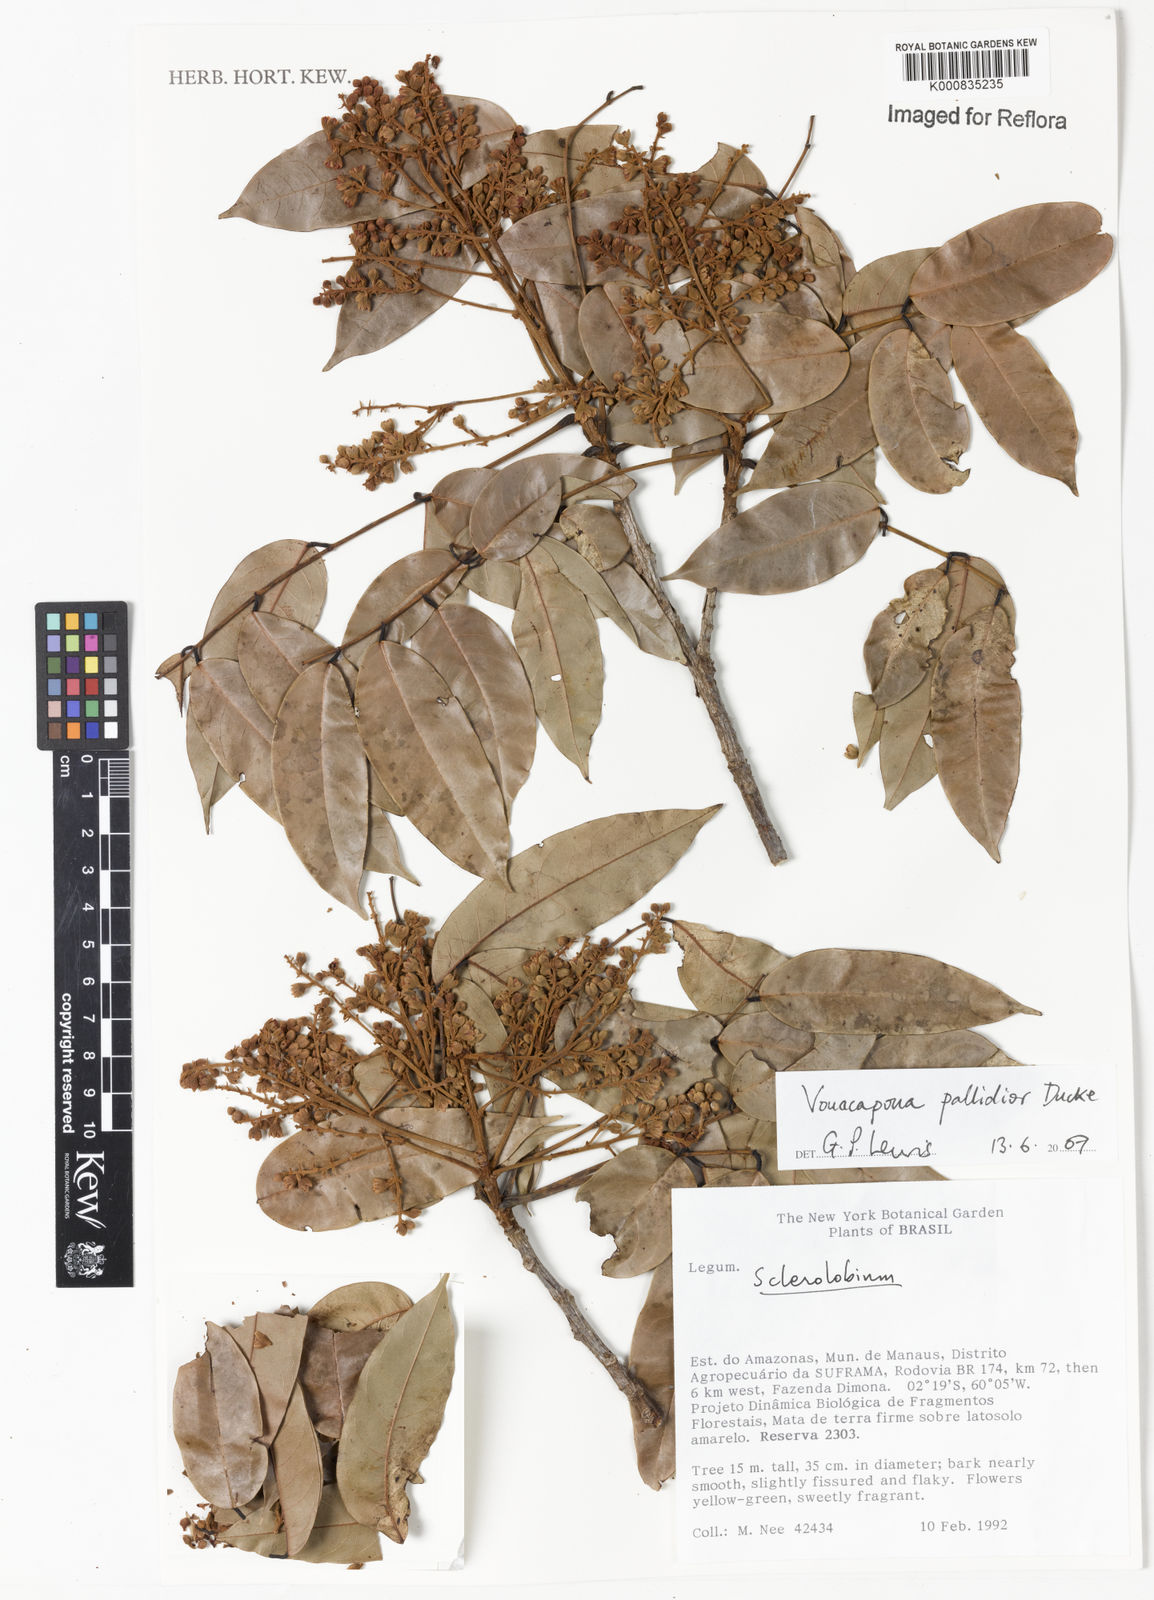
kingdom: Plantae
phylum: Tracheophyta
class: Magnoliopsida
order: Fabales
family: Fabaceae
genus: Vouacapoua
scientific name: Vouacapoua pallidior
